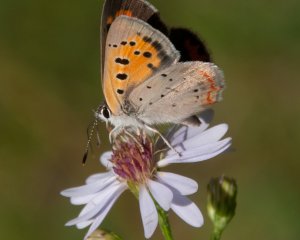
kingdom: Animalia
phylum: Arthropoda
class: Insecta
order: Lepidoptera
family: Lycaenidae
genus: Lycaena
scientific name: Lycaena phlaeas
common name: American Copper
